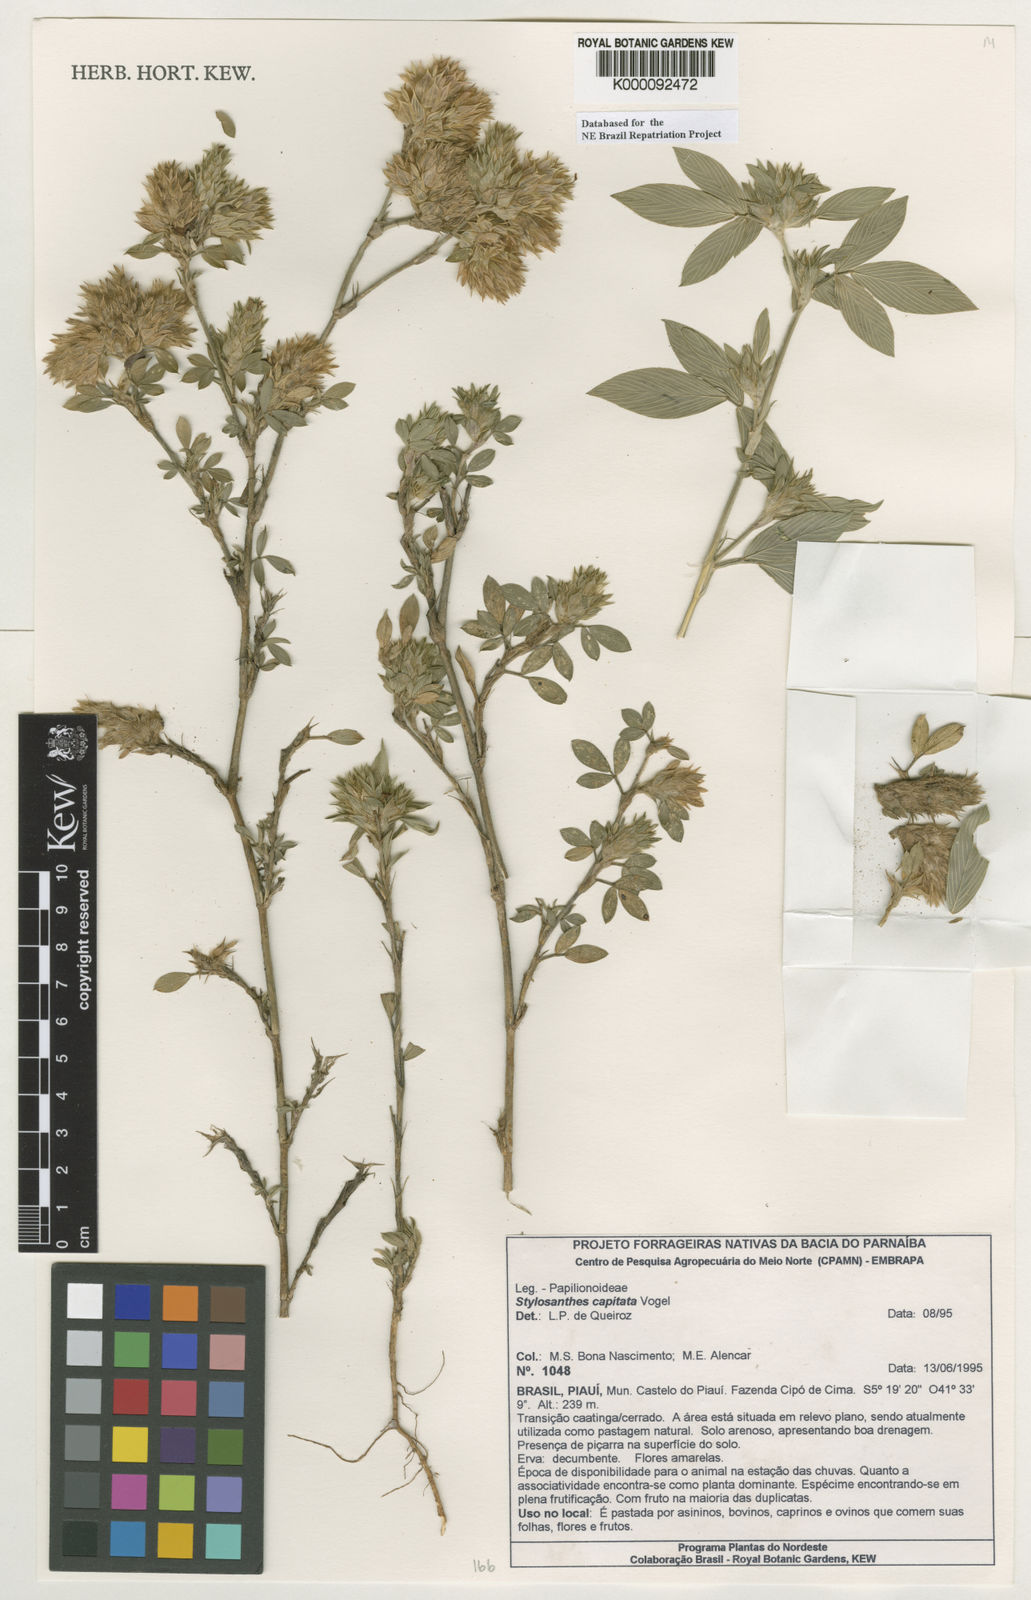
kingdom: Plantae
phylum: Tracheophyta
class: Magnoliopsida
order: Fabales
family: Fabaceae
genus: Stylosanthes
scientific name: Stylosanthes capitata
